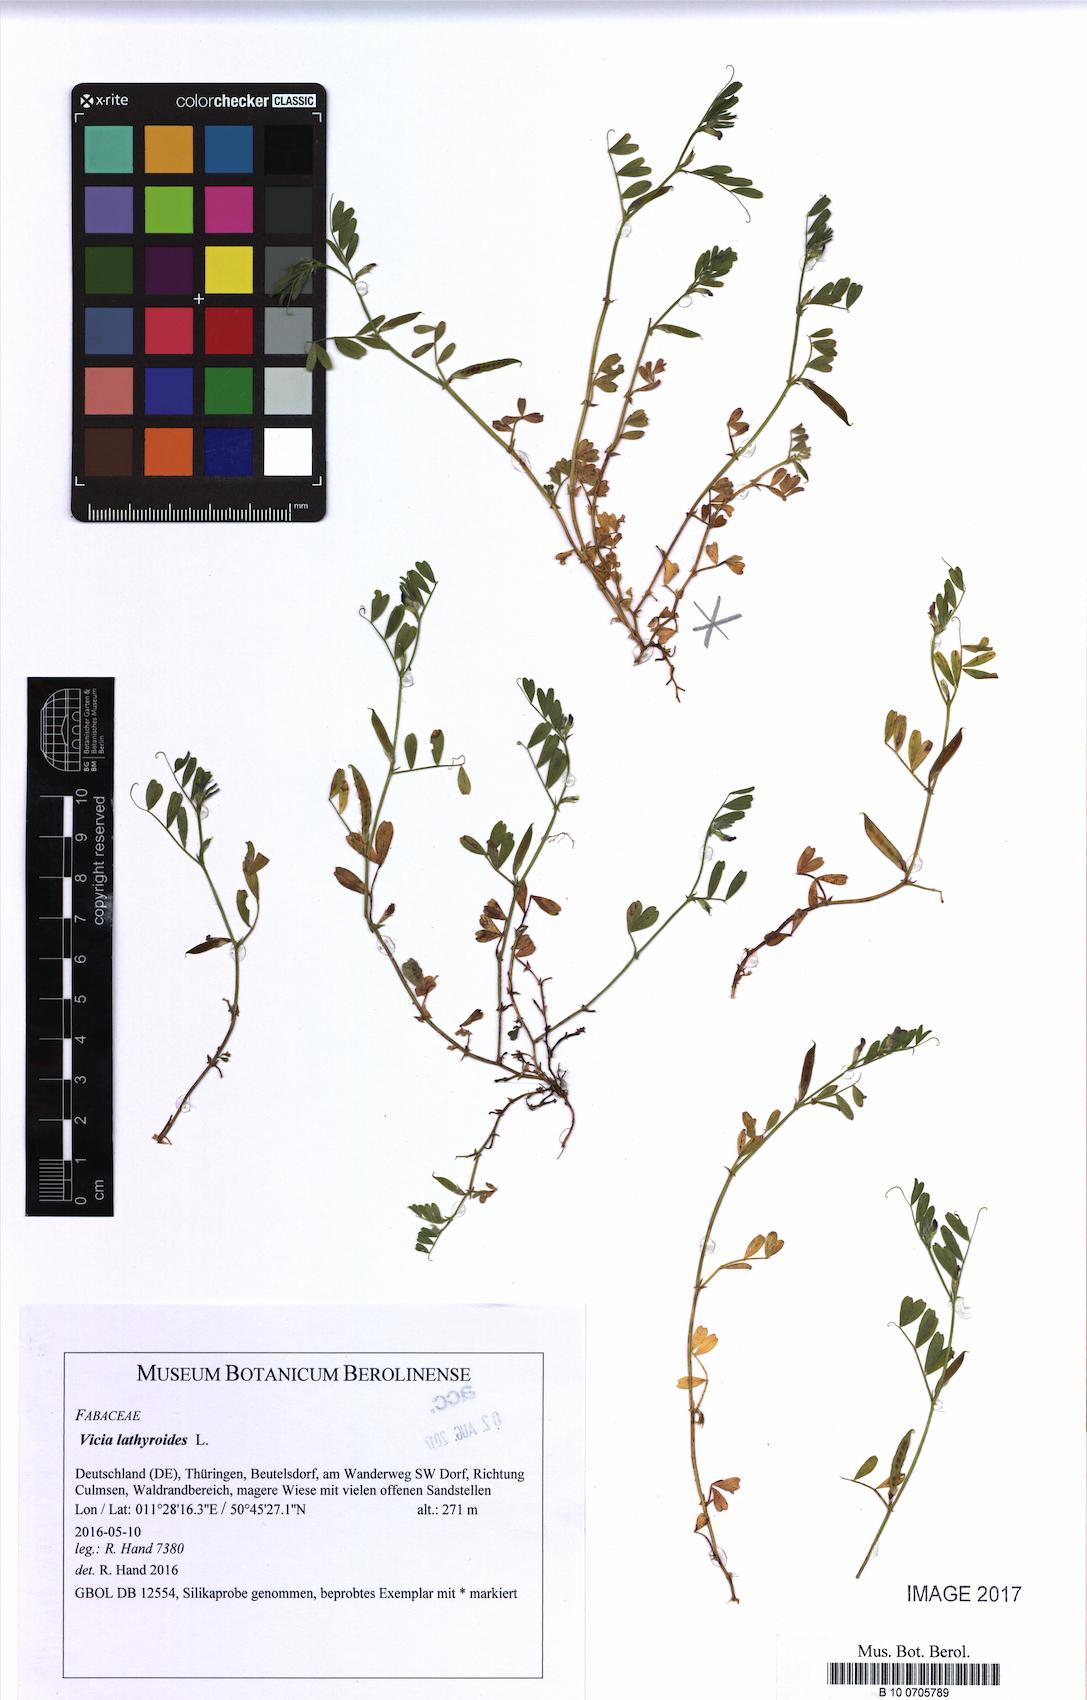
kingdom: Plantae
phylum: Tracheophyta
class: Magnoliopsida
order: Fabales
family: Fabaceae
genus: Vicia
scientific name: Vicia lathyroides
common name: Spring vetch
